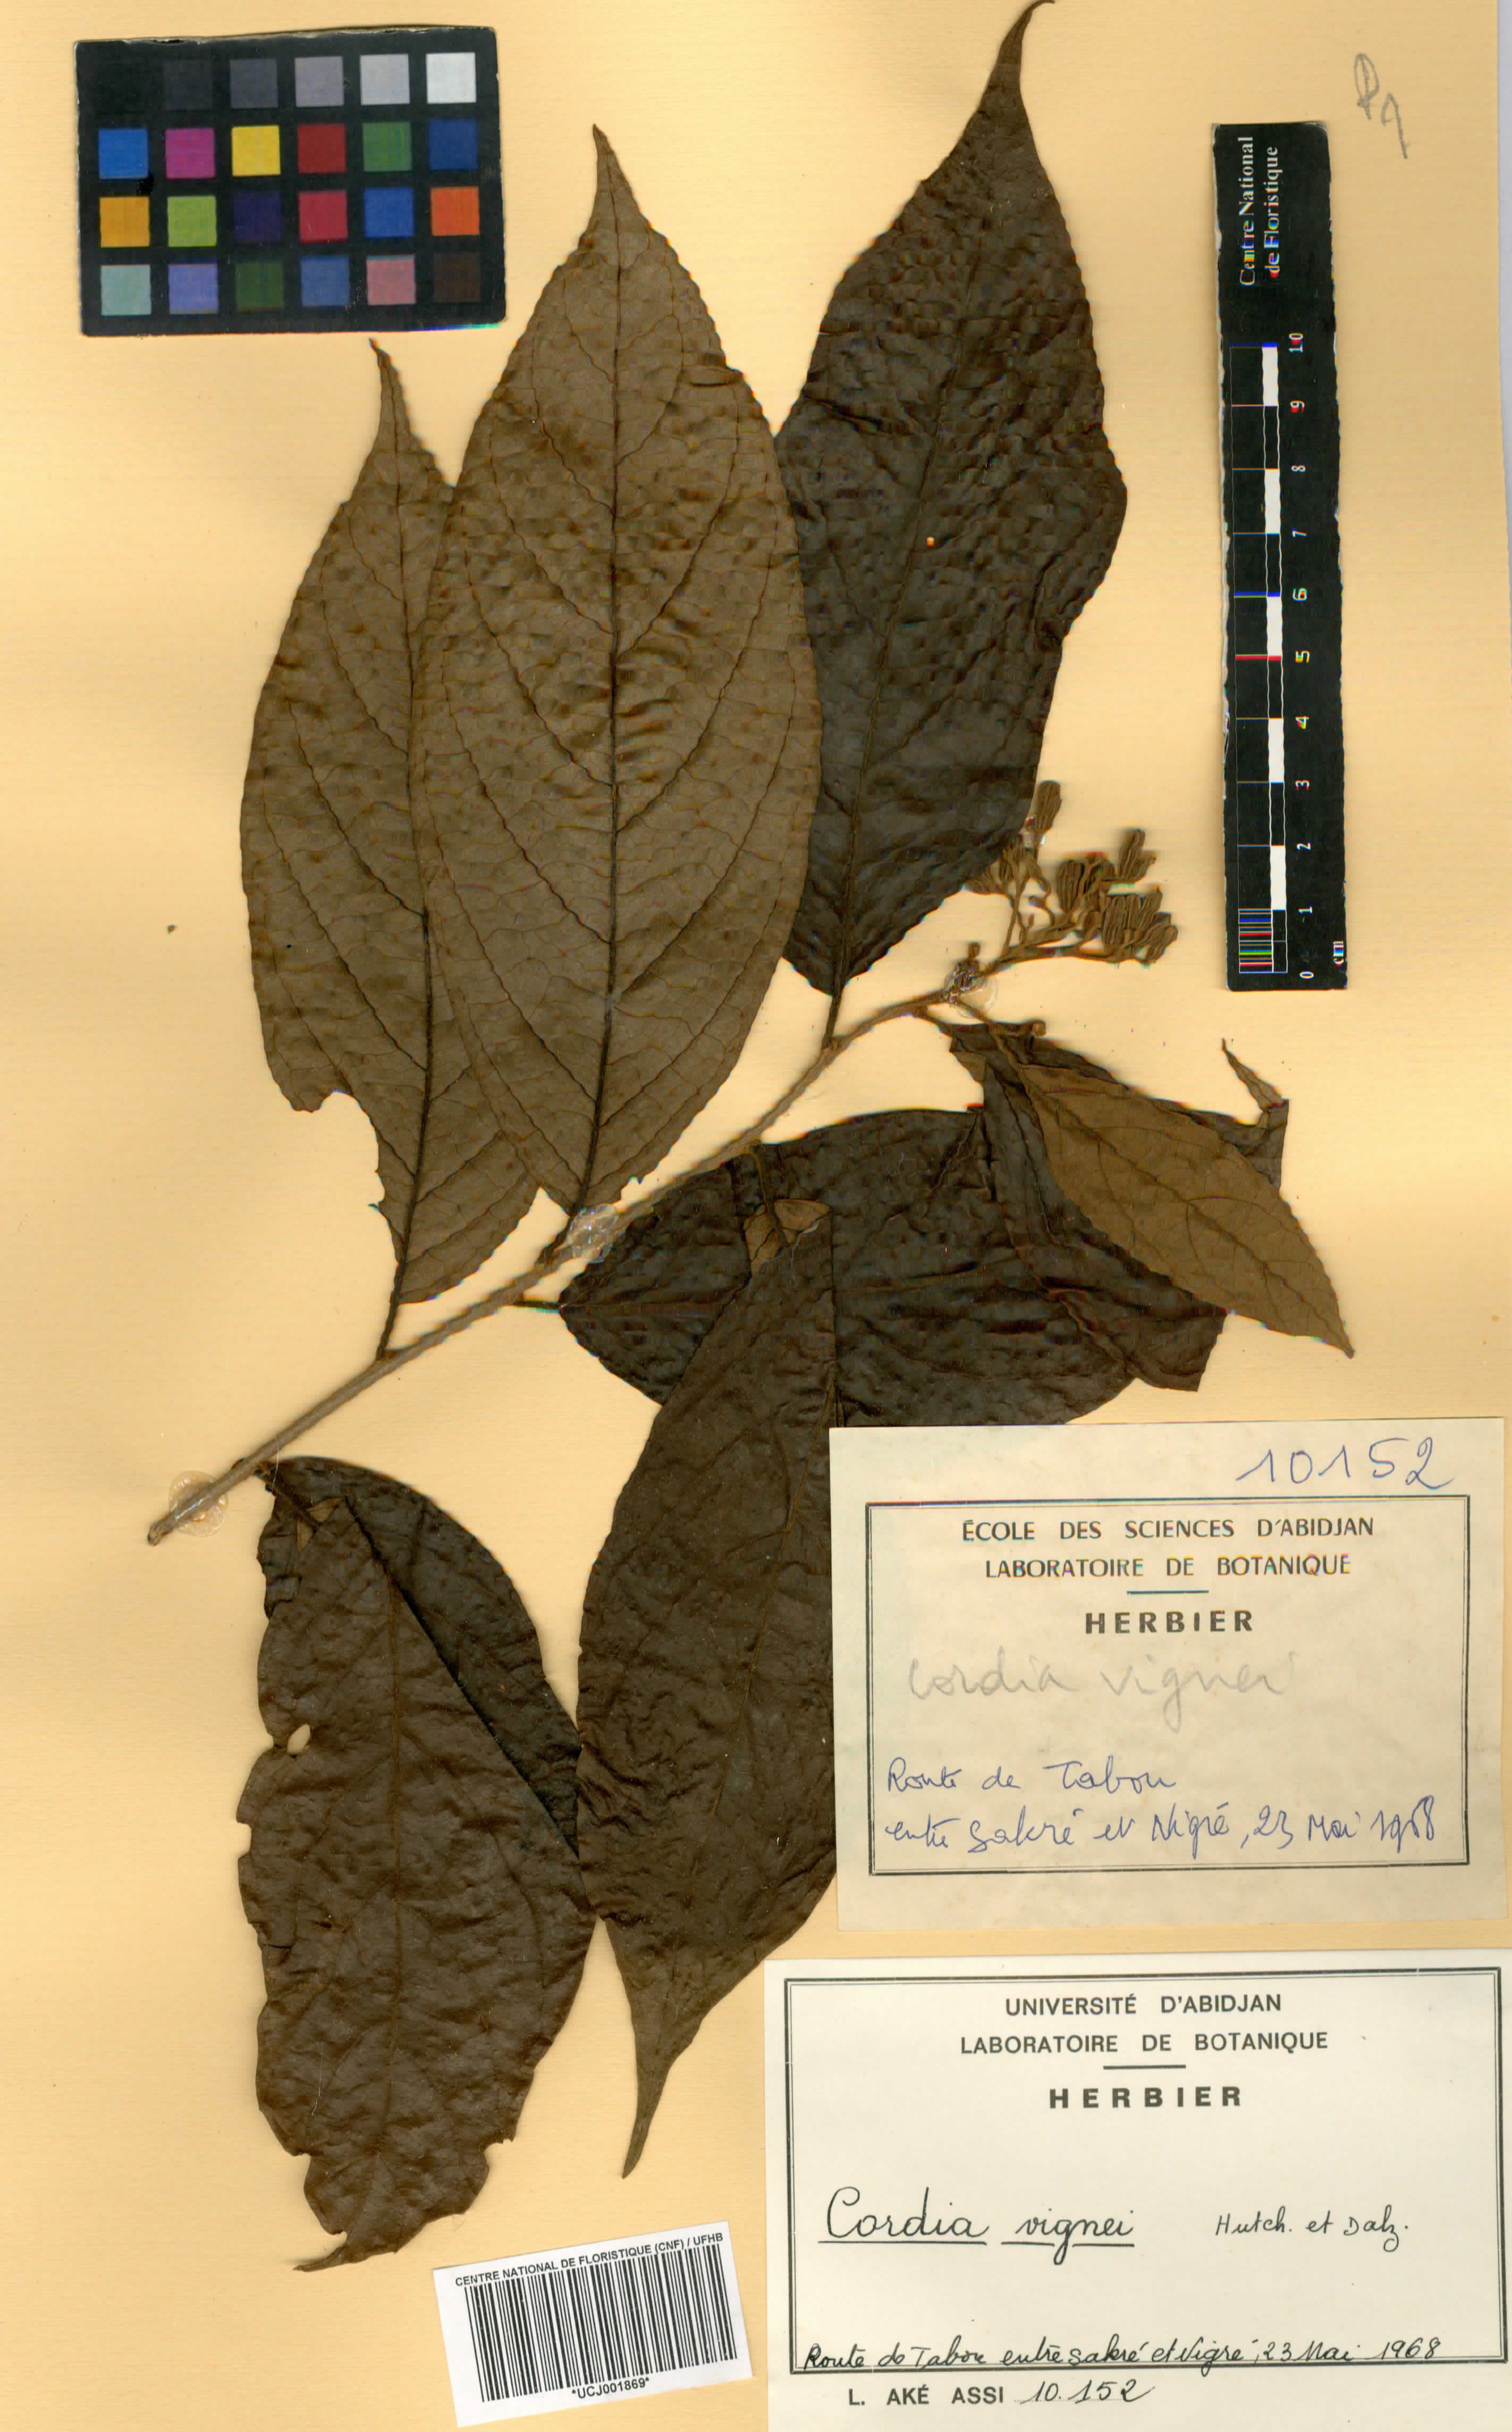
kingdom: Plantae
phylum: Tracheophyta
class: Magnoliopsida
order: Boraginales
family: Cordiaceae
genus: Cordia
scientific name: Cordia vignei
